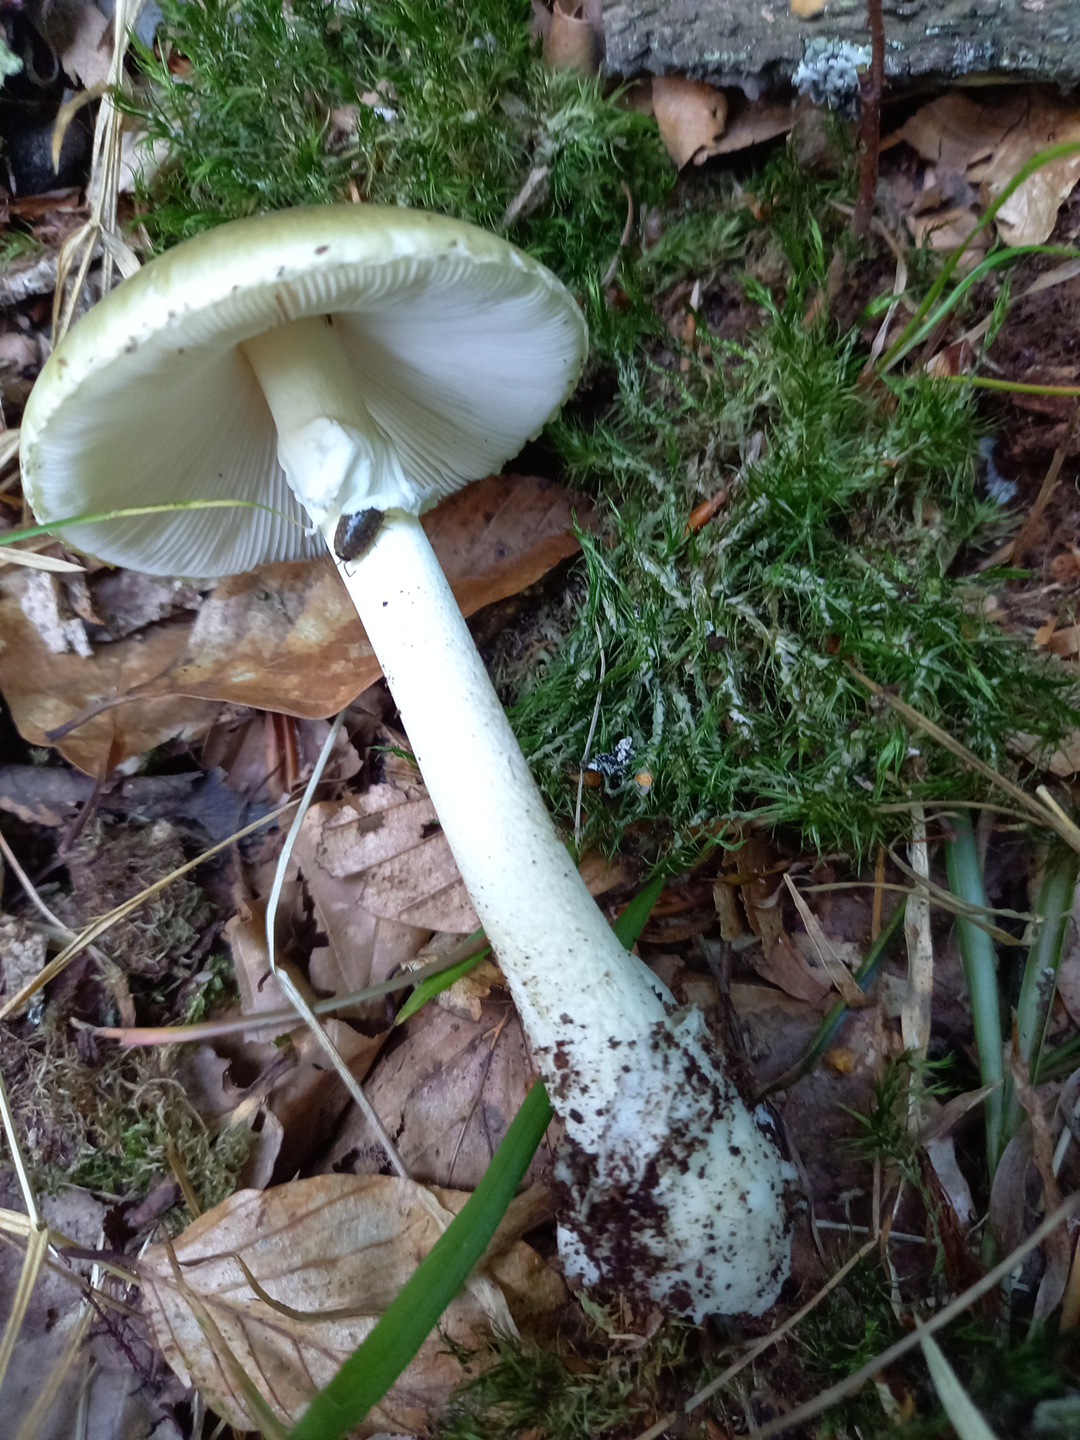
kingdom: Fungi
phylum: Basidiomycota
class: Agaricomycetes
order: Agaricales
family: Amanitaceae
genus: Amanita
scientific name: Amanita phalloides
